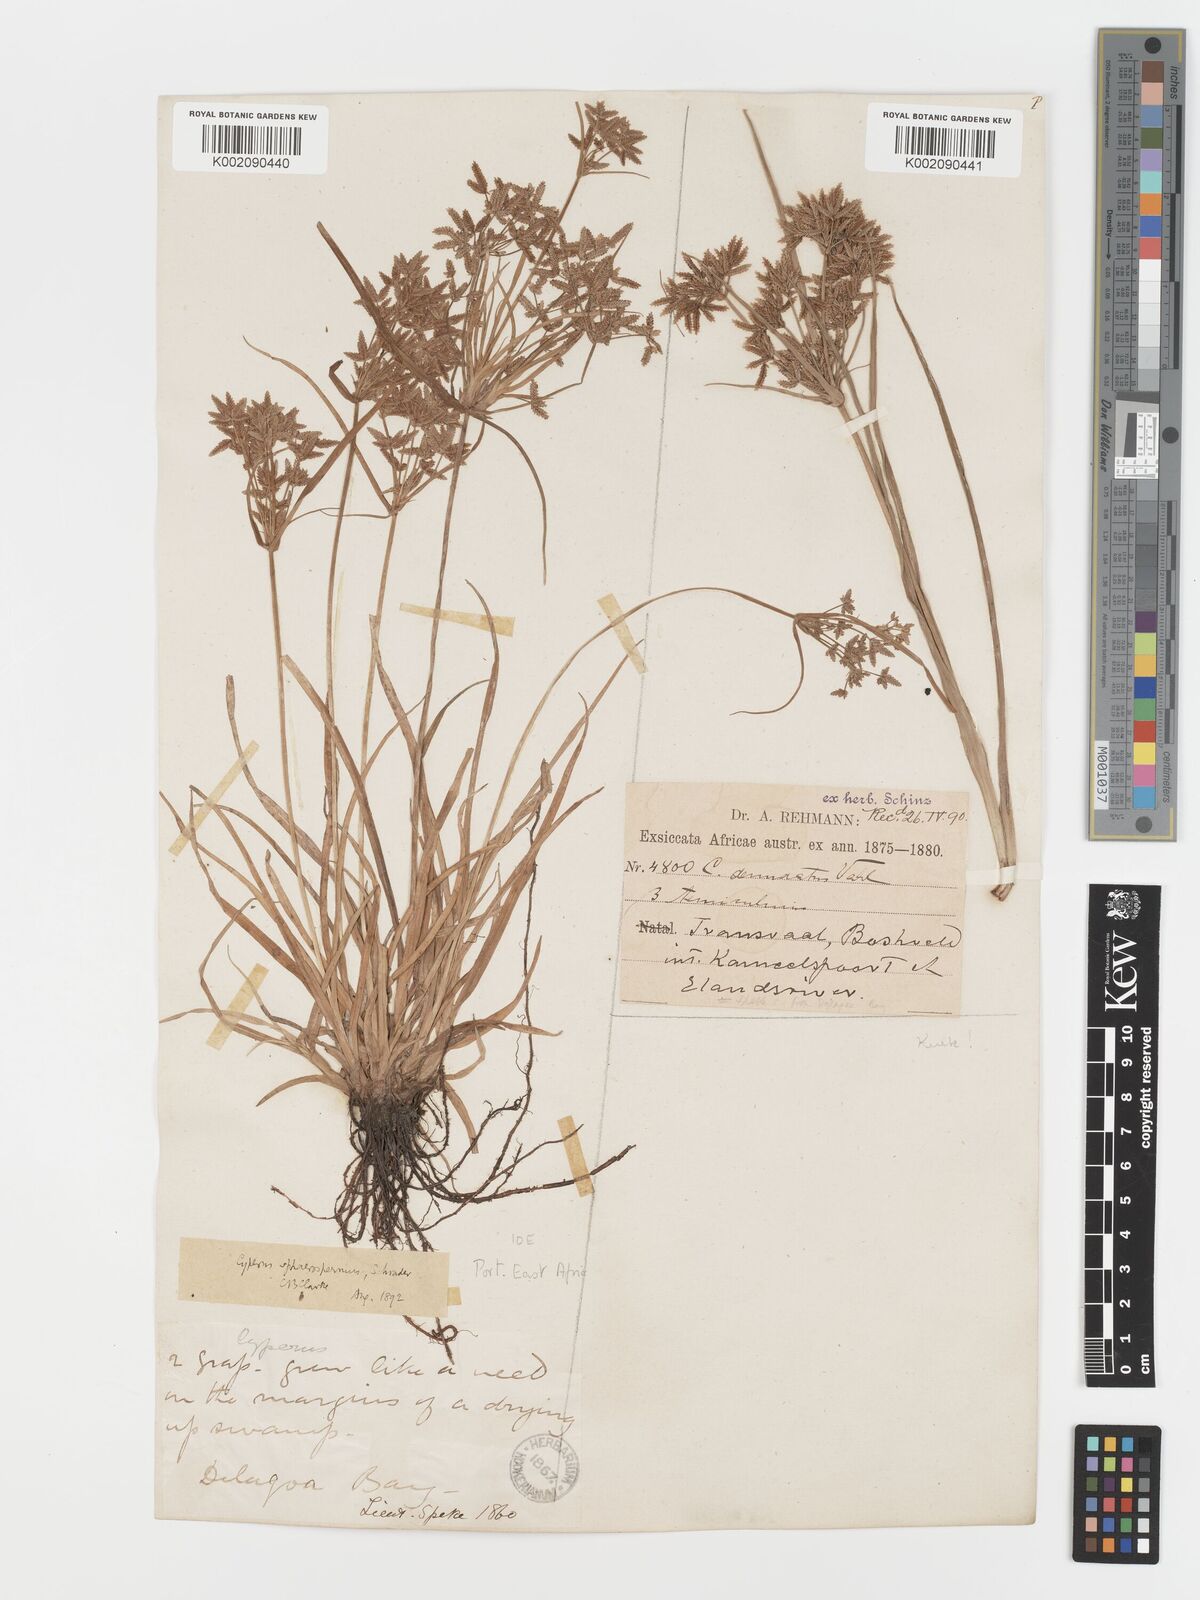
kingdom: Plantae
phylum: Tracheophyta
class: Liliopsida
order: Poales
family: Cyperaceae
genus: Cyperus
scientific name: Cyperus sphaerospermus
